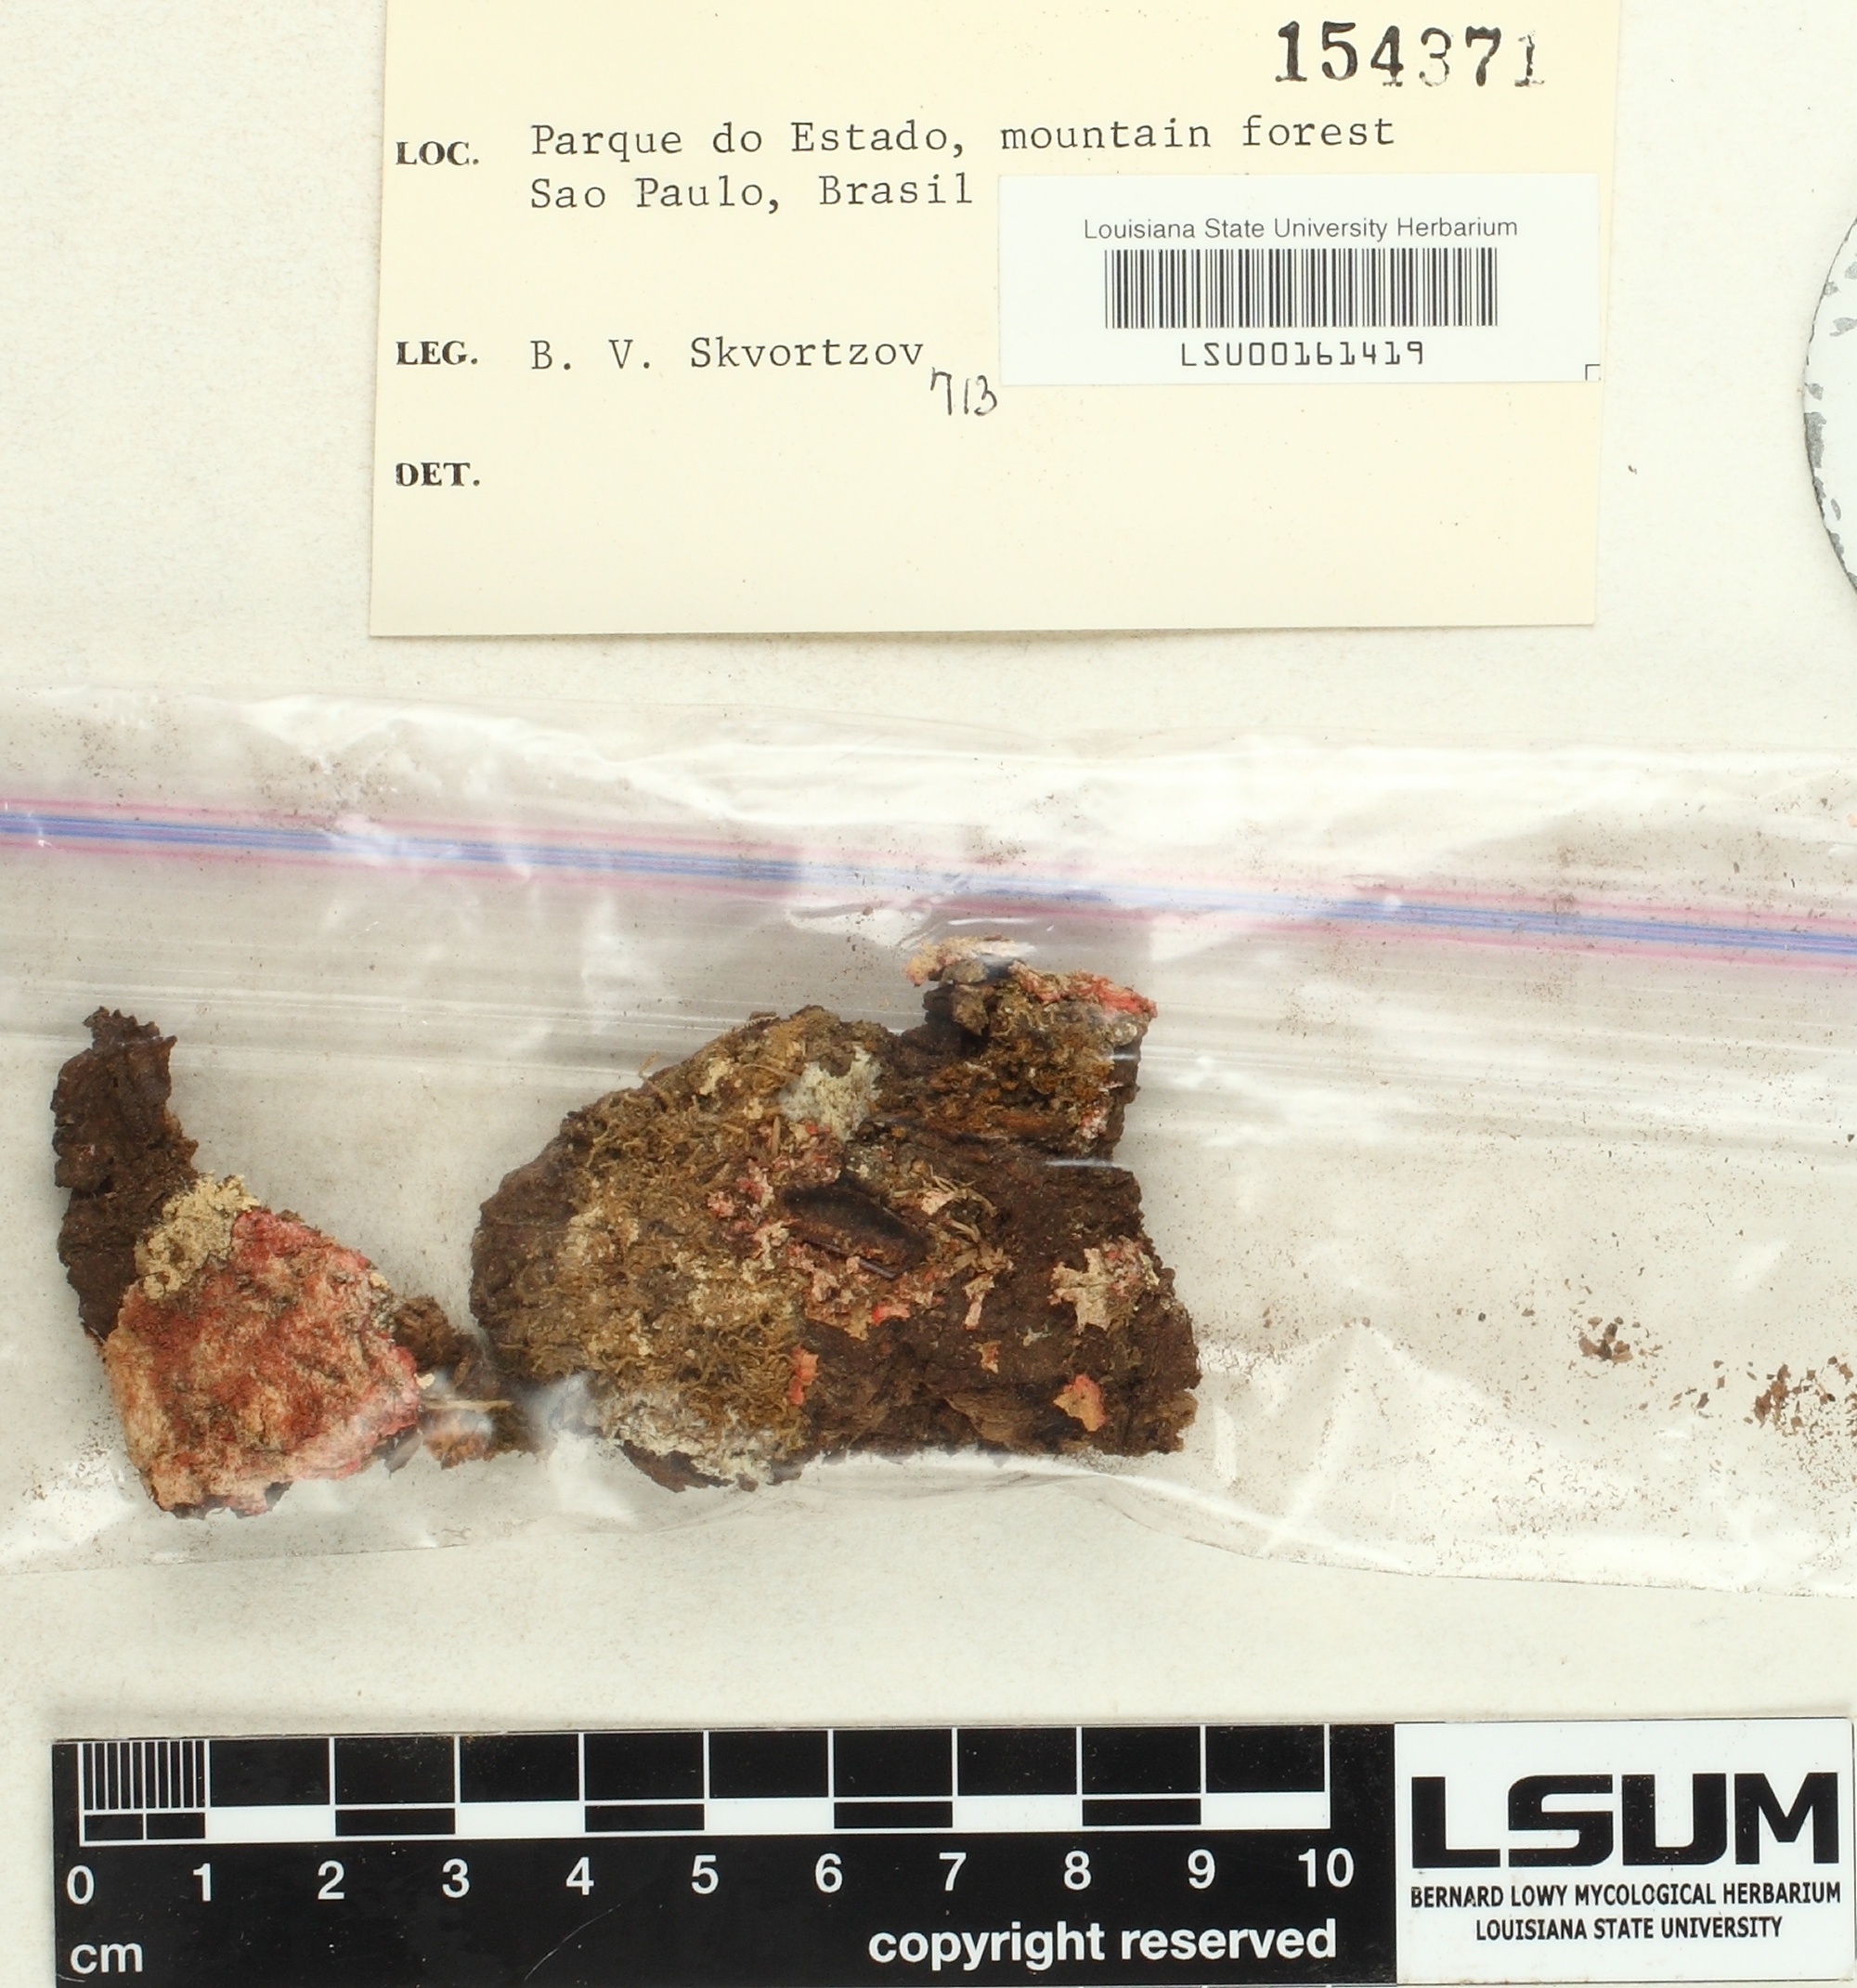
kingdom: Fungi
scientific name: Fungi
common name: Fungi
